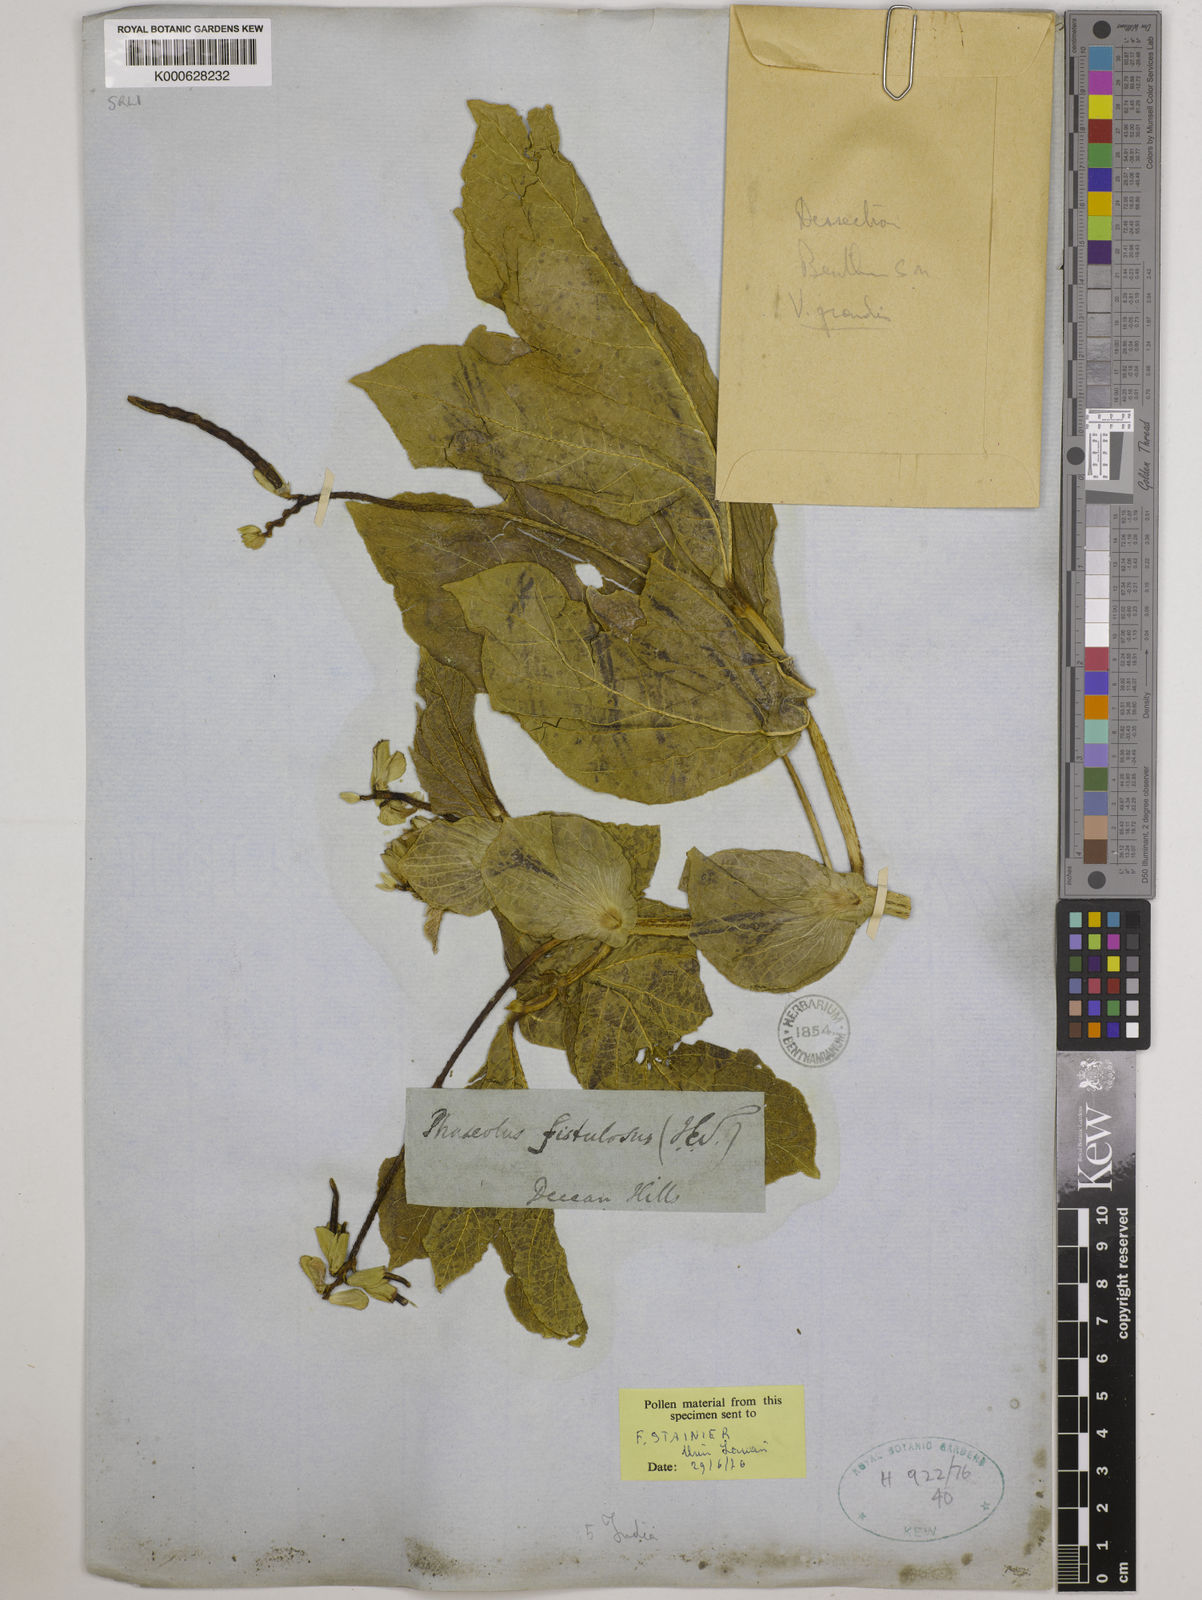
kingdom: Plantae
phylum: Tracheophyta
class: Magnoliopsida
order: Fabales
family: Fabaceae
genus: Vigna
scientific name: Vigna khandalensis
